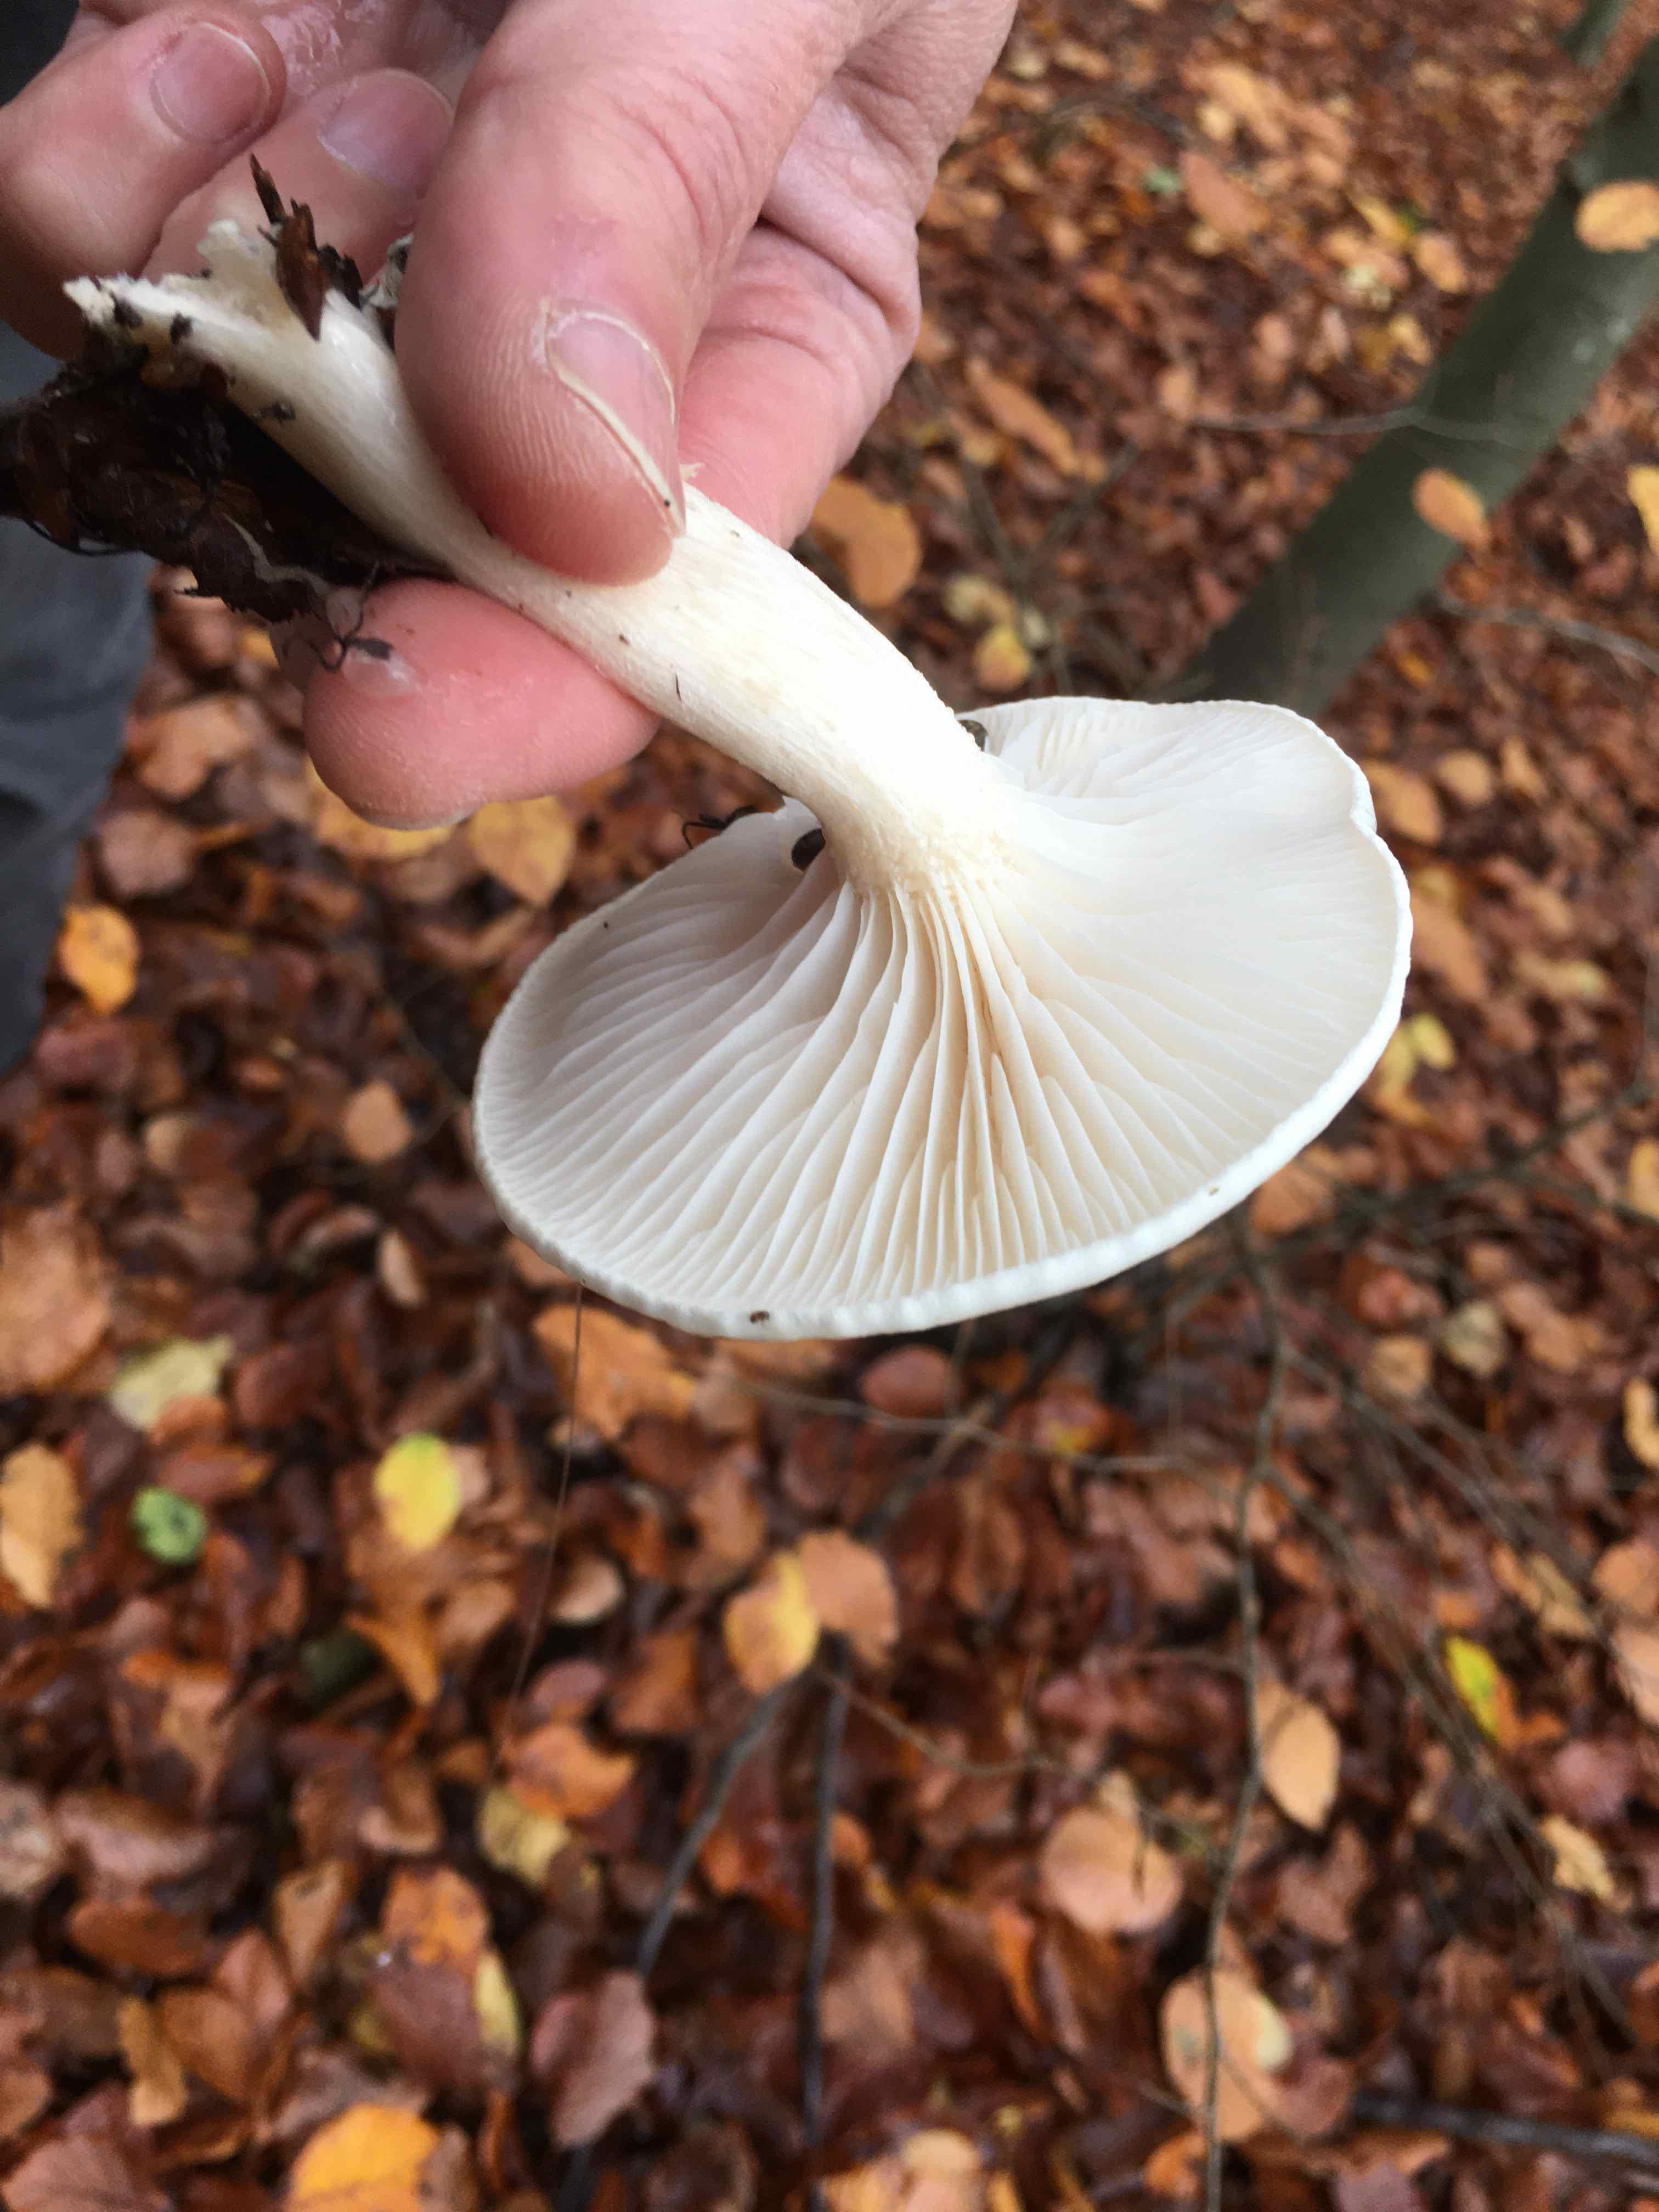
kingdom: Fungi
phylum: Basidiomycota
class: Agaricomycetes
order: Agaricales
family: Hygrophoraceae
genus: Hygrophorus
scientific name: Hygrophorus
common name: sneglehat
